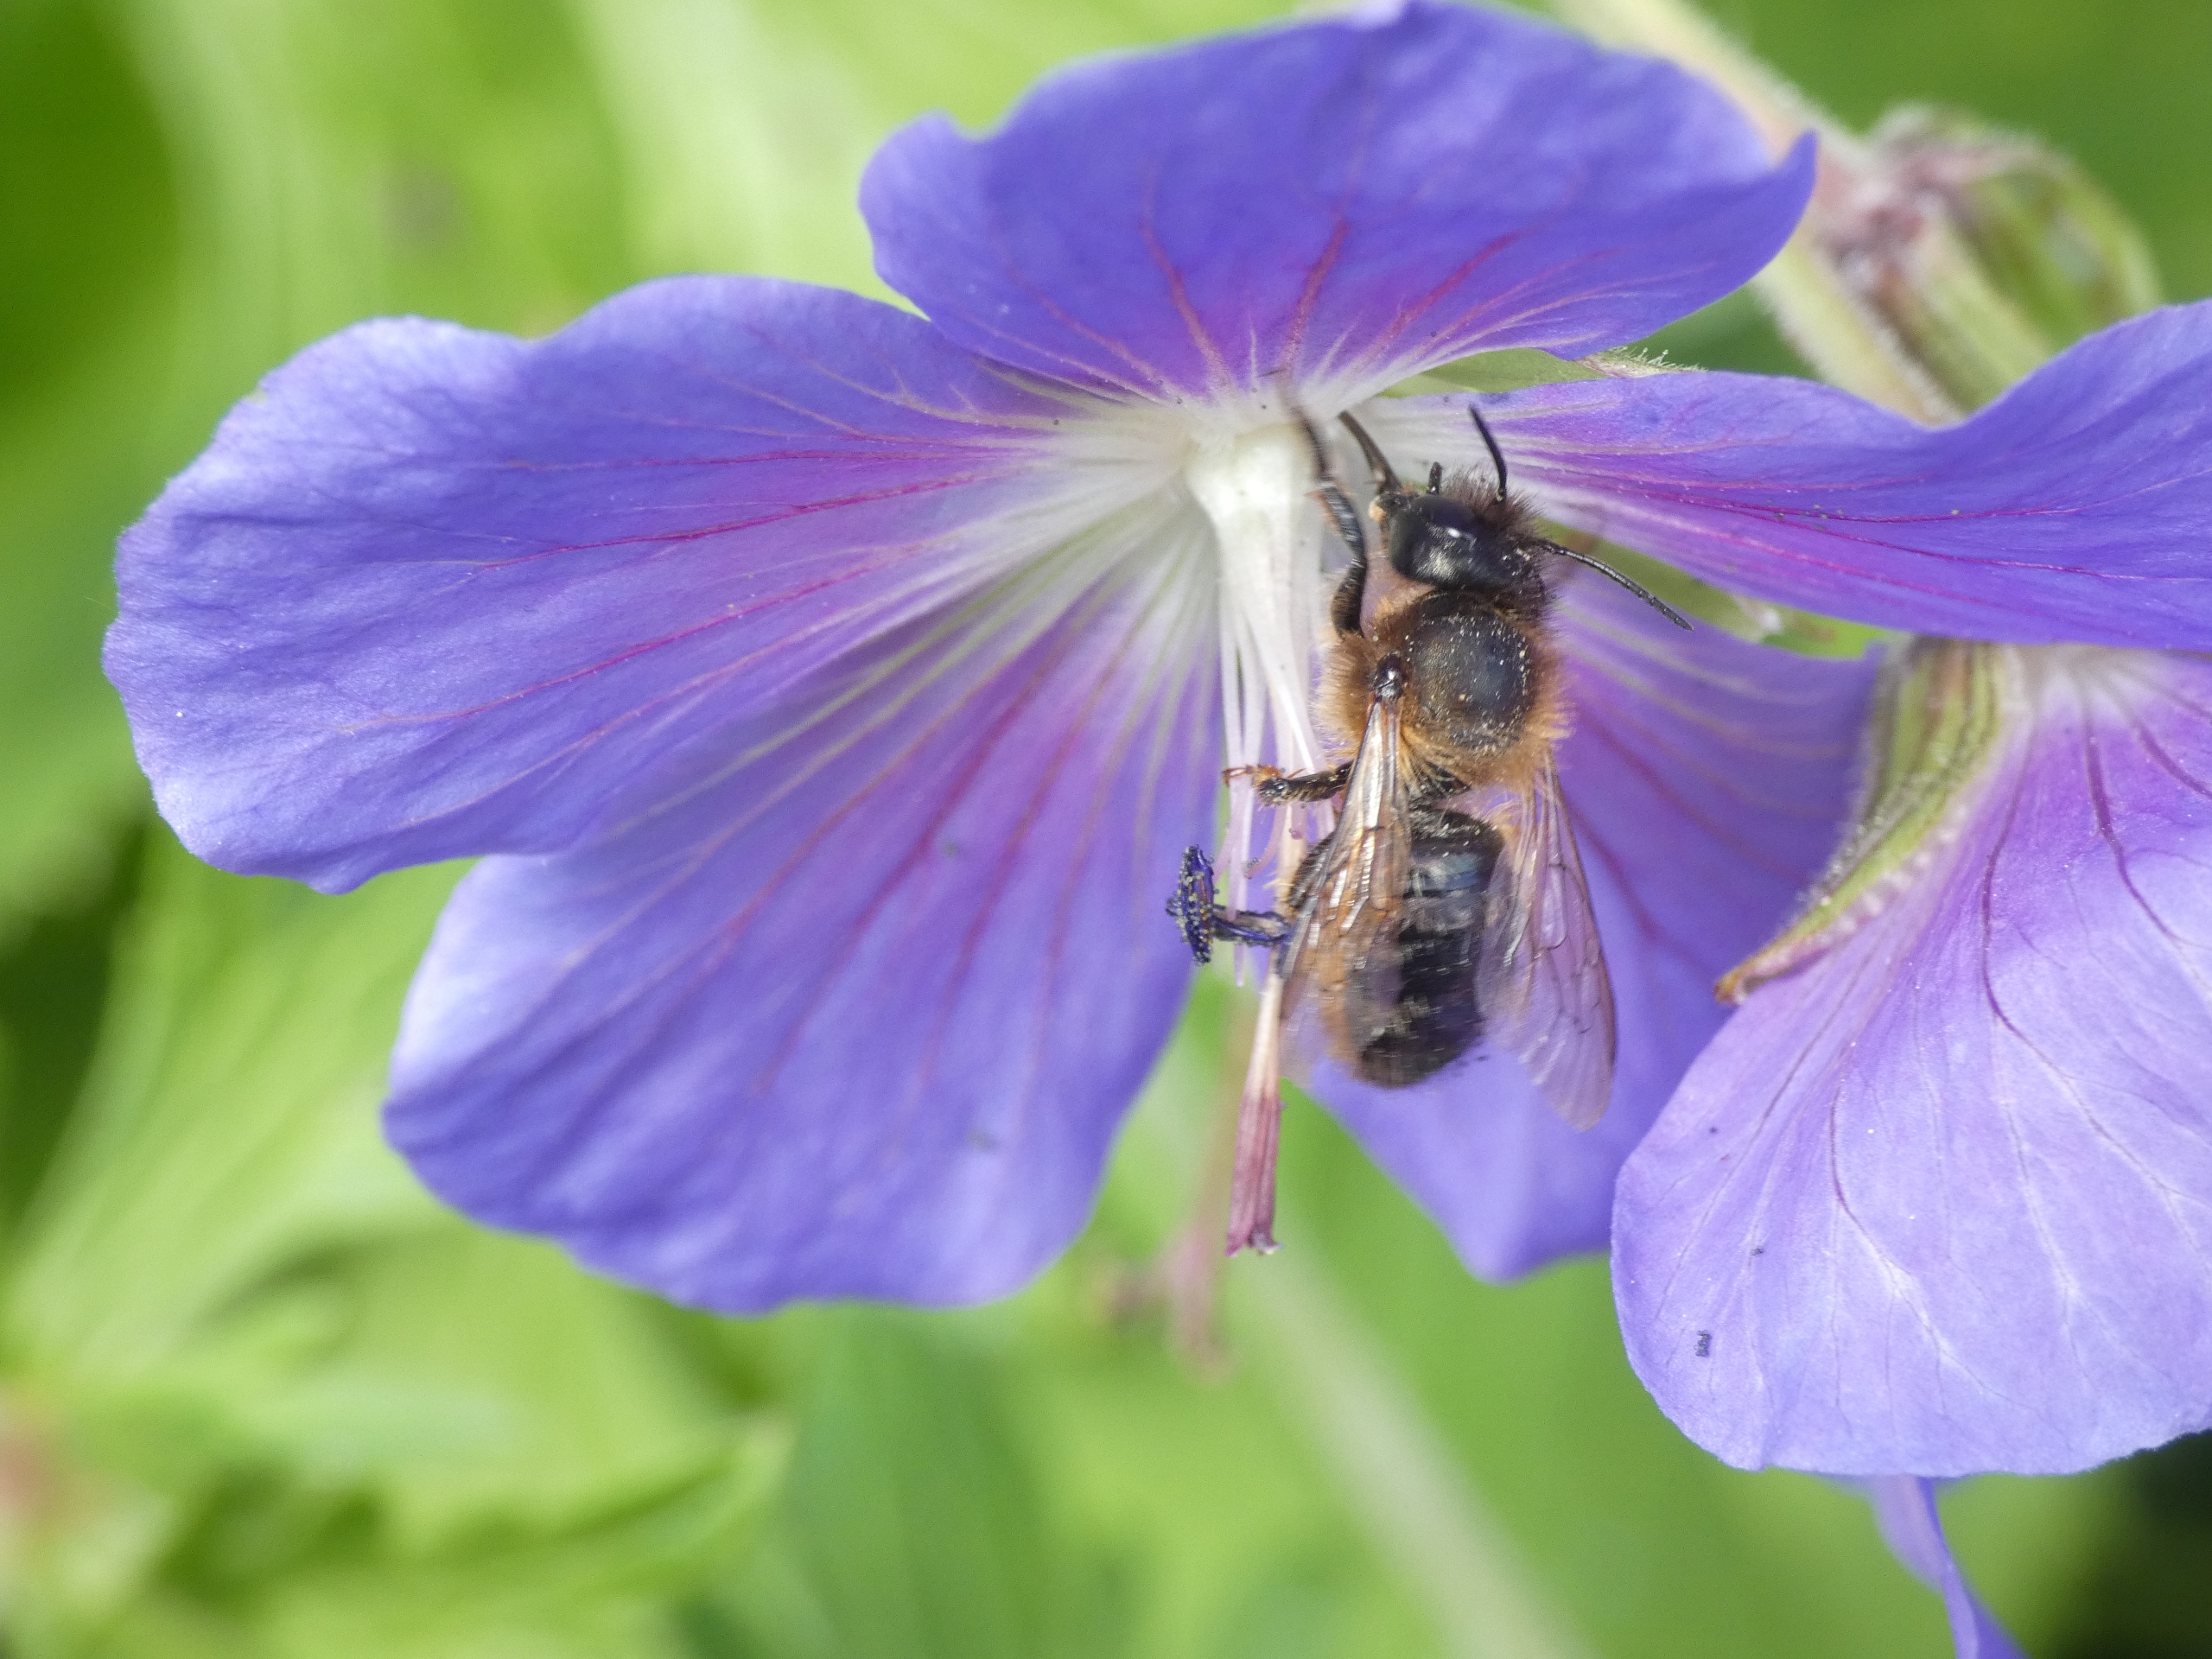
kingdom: Animalia
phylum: Arthropoda
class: Insecta
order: Hymenoptera
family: Megachilidae
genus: Osmia
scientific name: Osmia bicornis
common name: Rød murerbi
